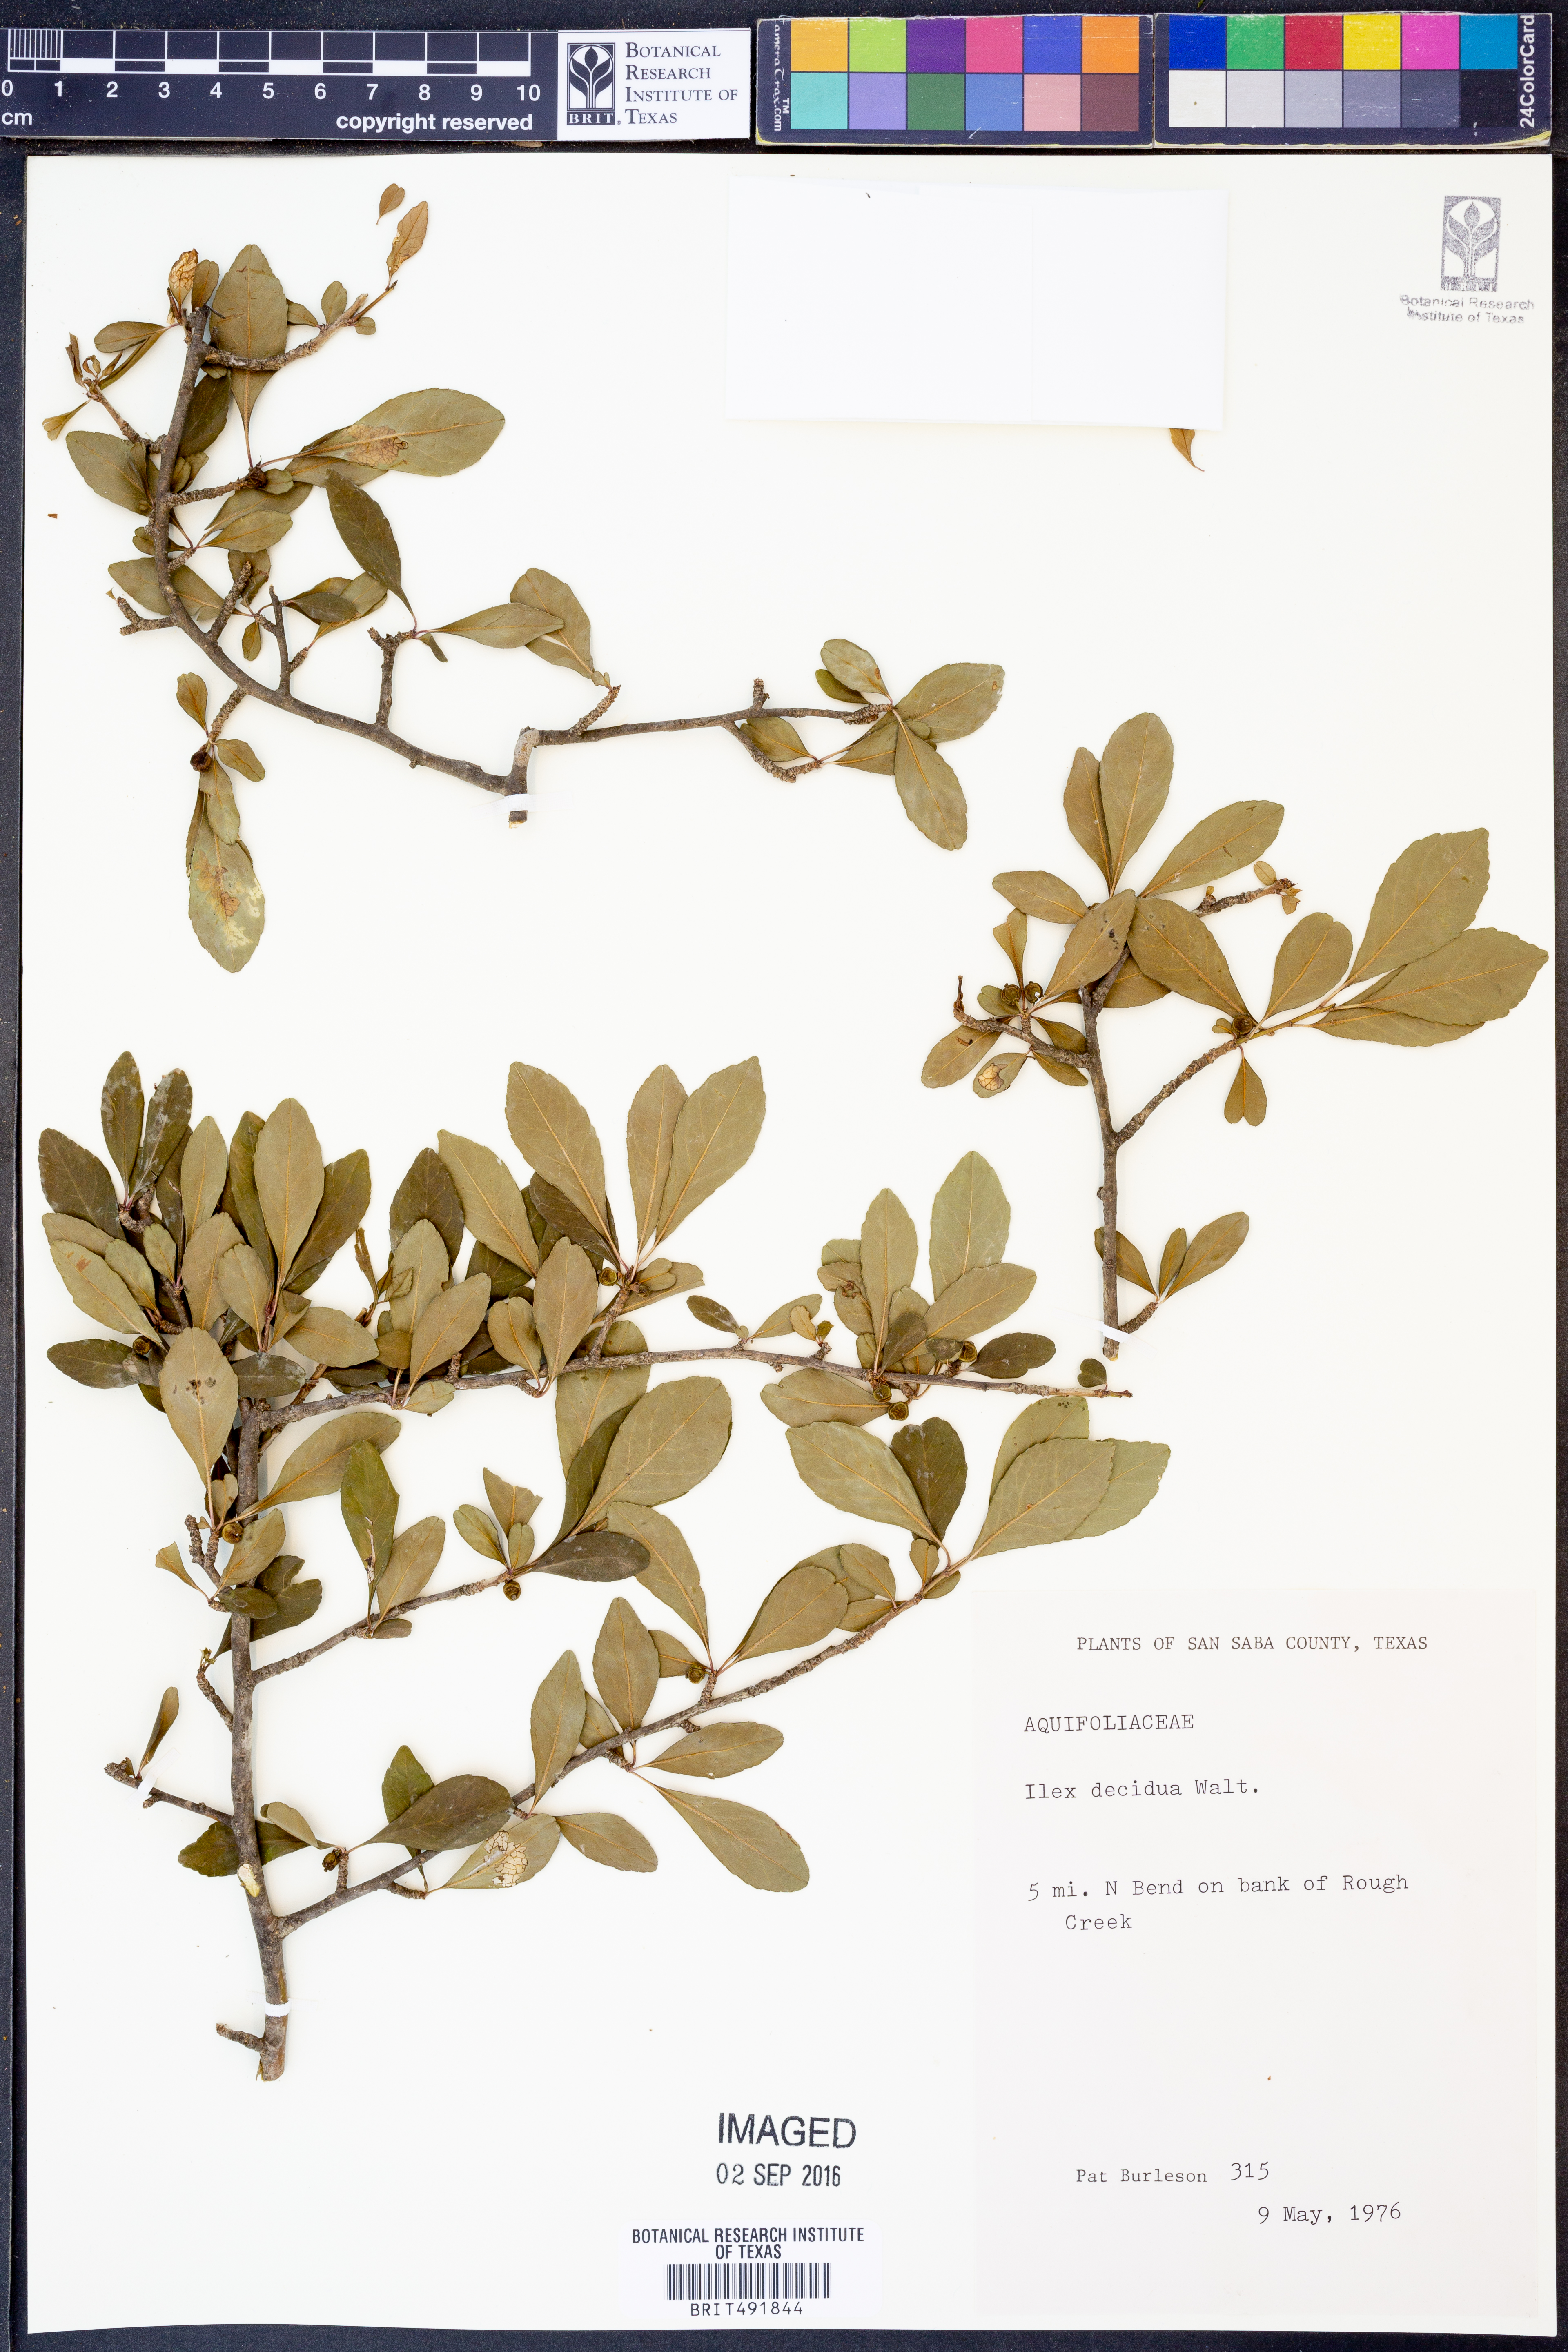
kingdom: Plantae
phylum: Tracheophyta
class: Magnoliopsida
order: Aquifoliales
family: Aquifoliaceae
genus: Ilex
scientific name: Ilex decidua
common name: Possum-haw
